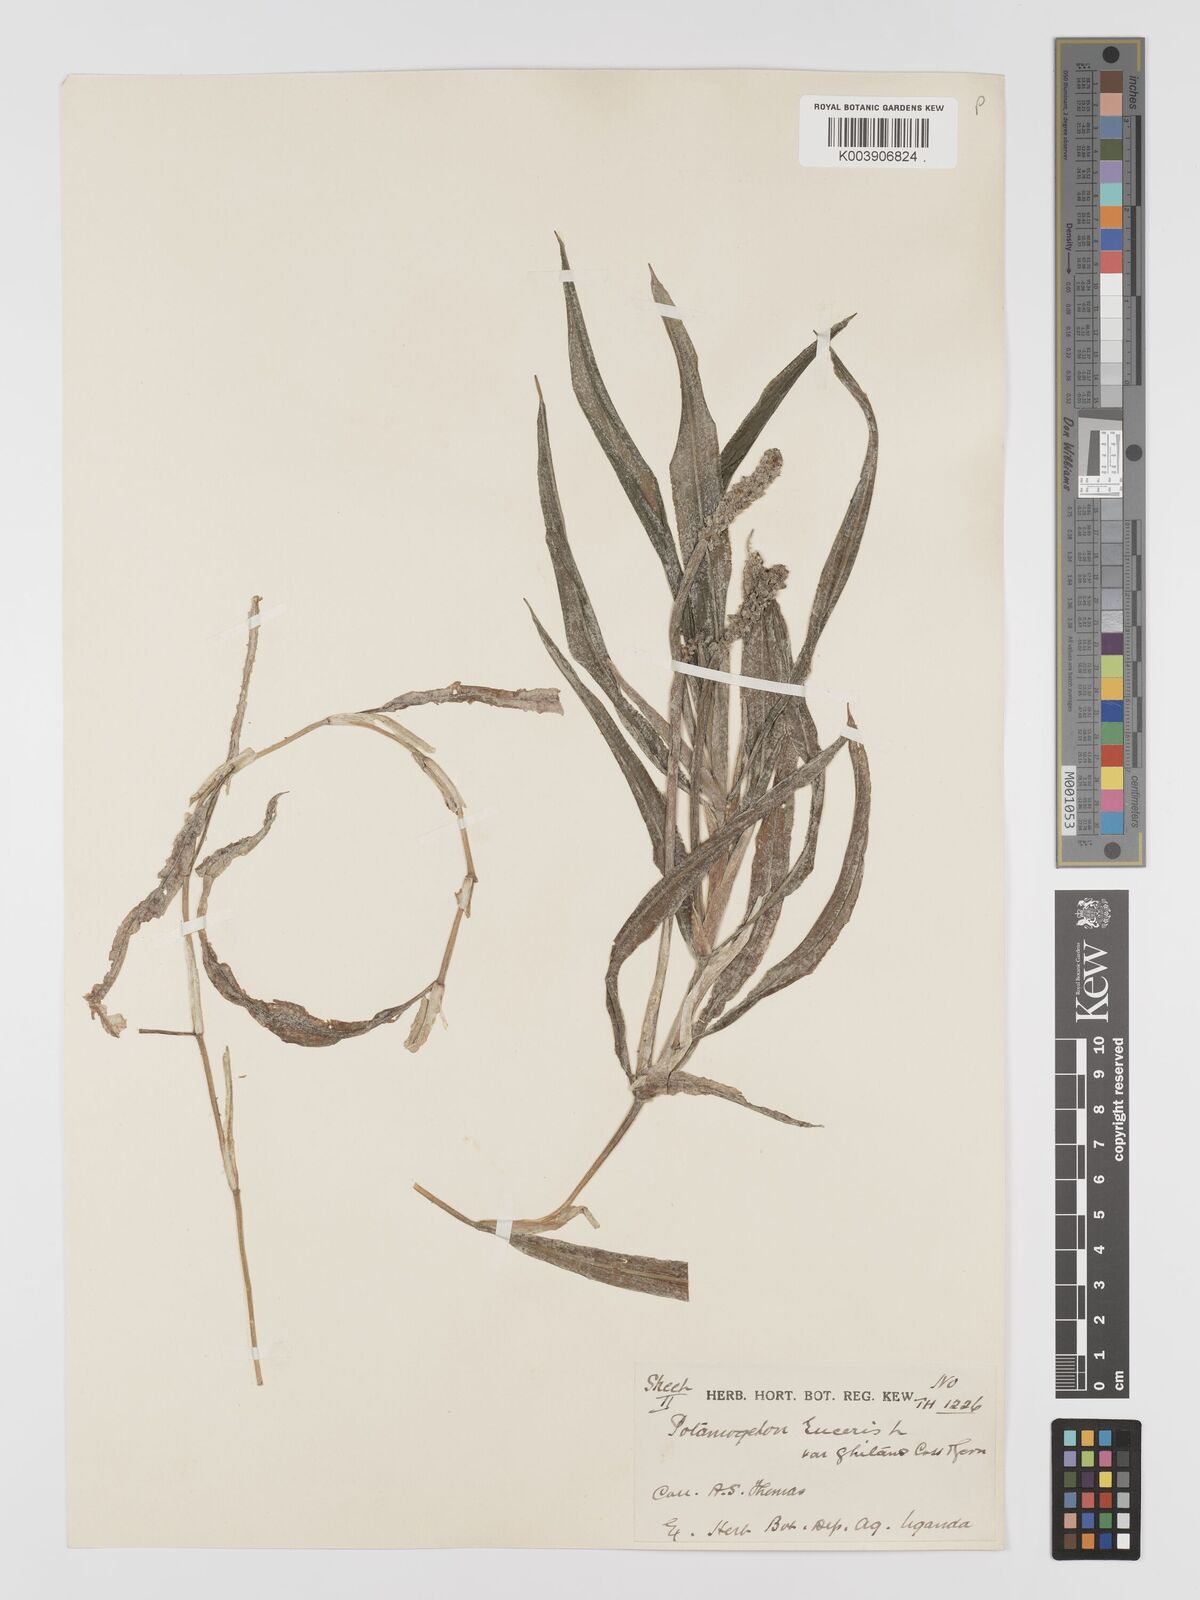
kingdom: Plantae
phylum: Tracheophyta
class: Liliopsida
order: Alismatales
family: Potamogetonaceae
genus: Potamogeton
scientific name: Potamogeton
